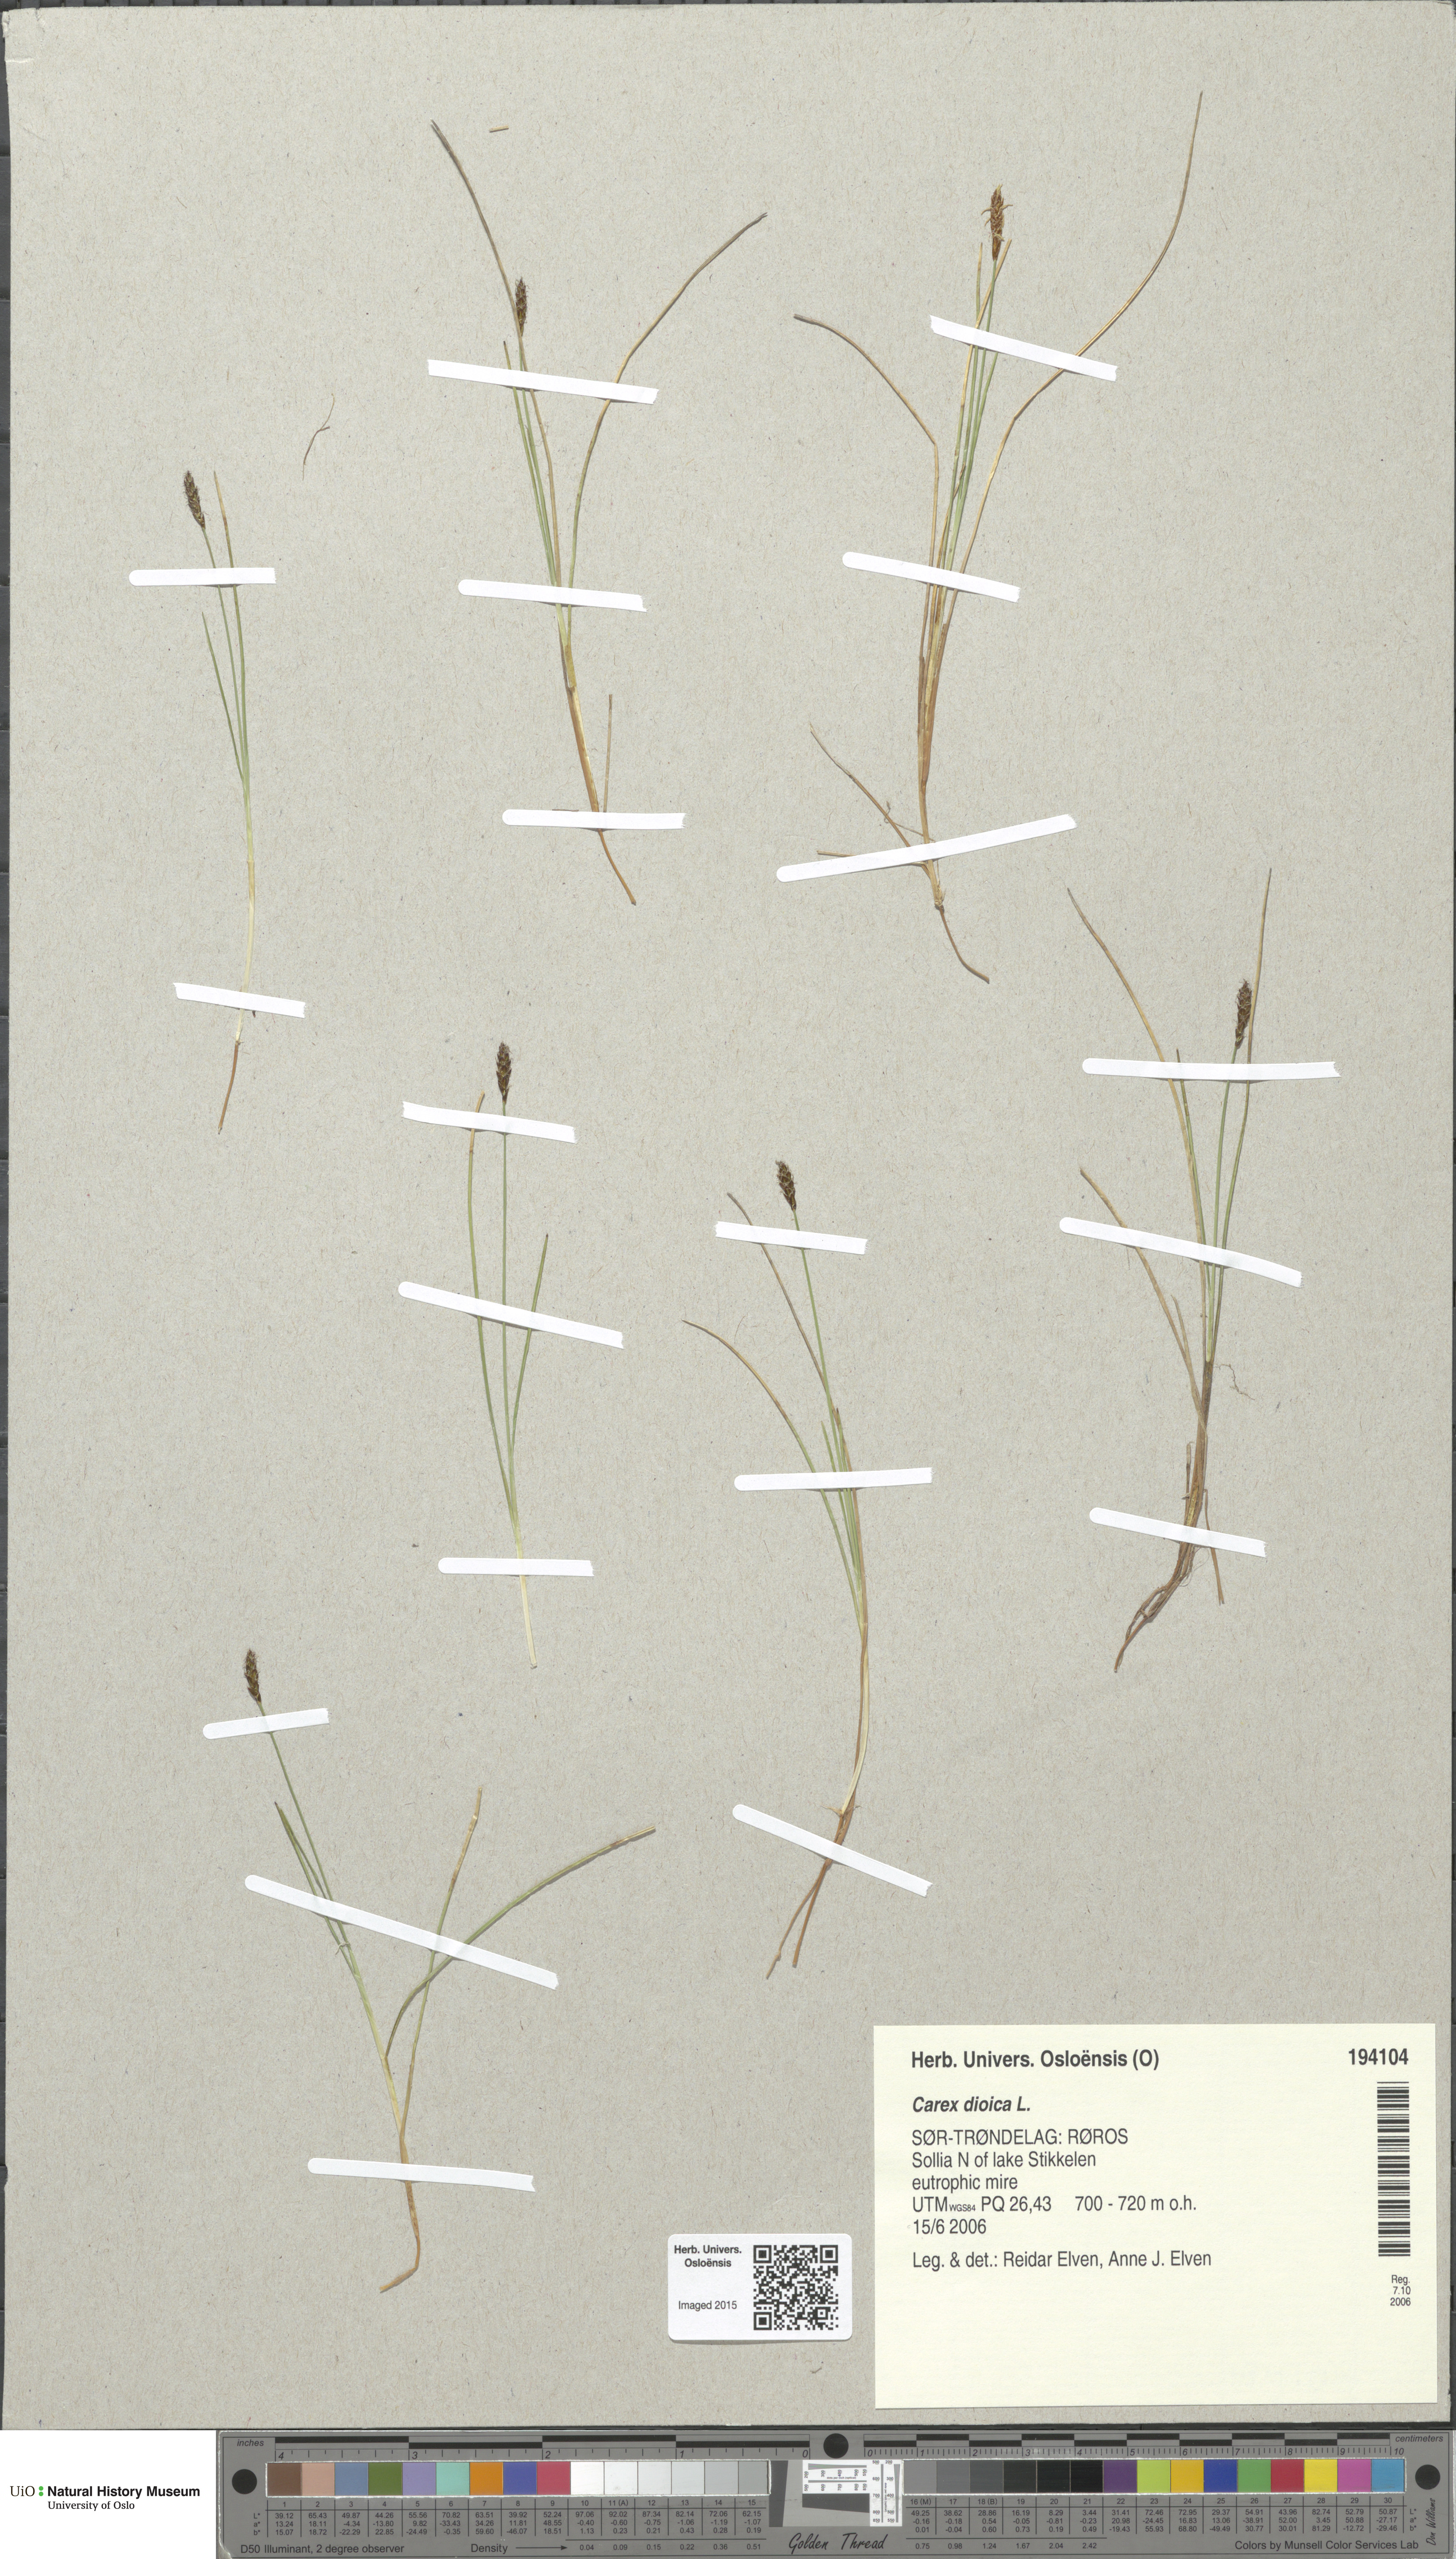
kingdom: Plantae
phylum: Tracheophyta
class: Liliopsida
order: Poales
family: Cyperaceae
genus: Carex
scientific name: Carex dioica
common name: Dioecious sedge
